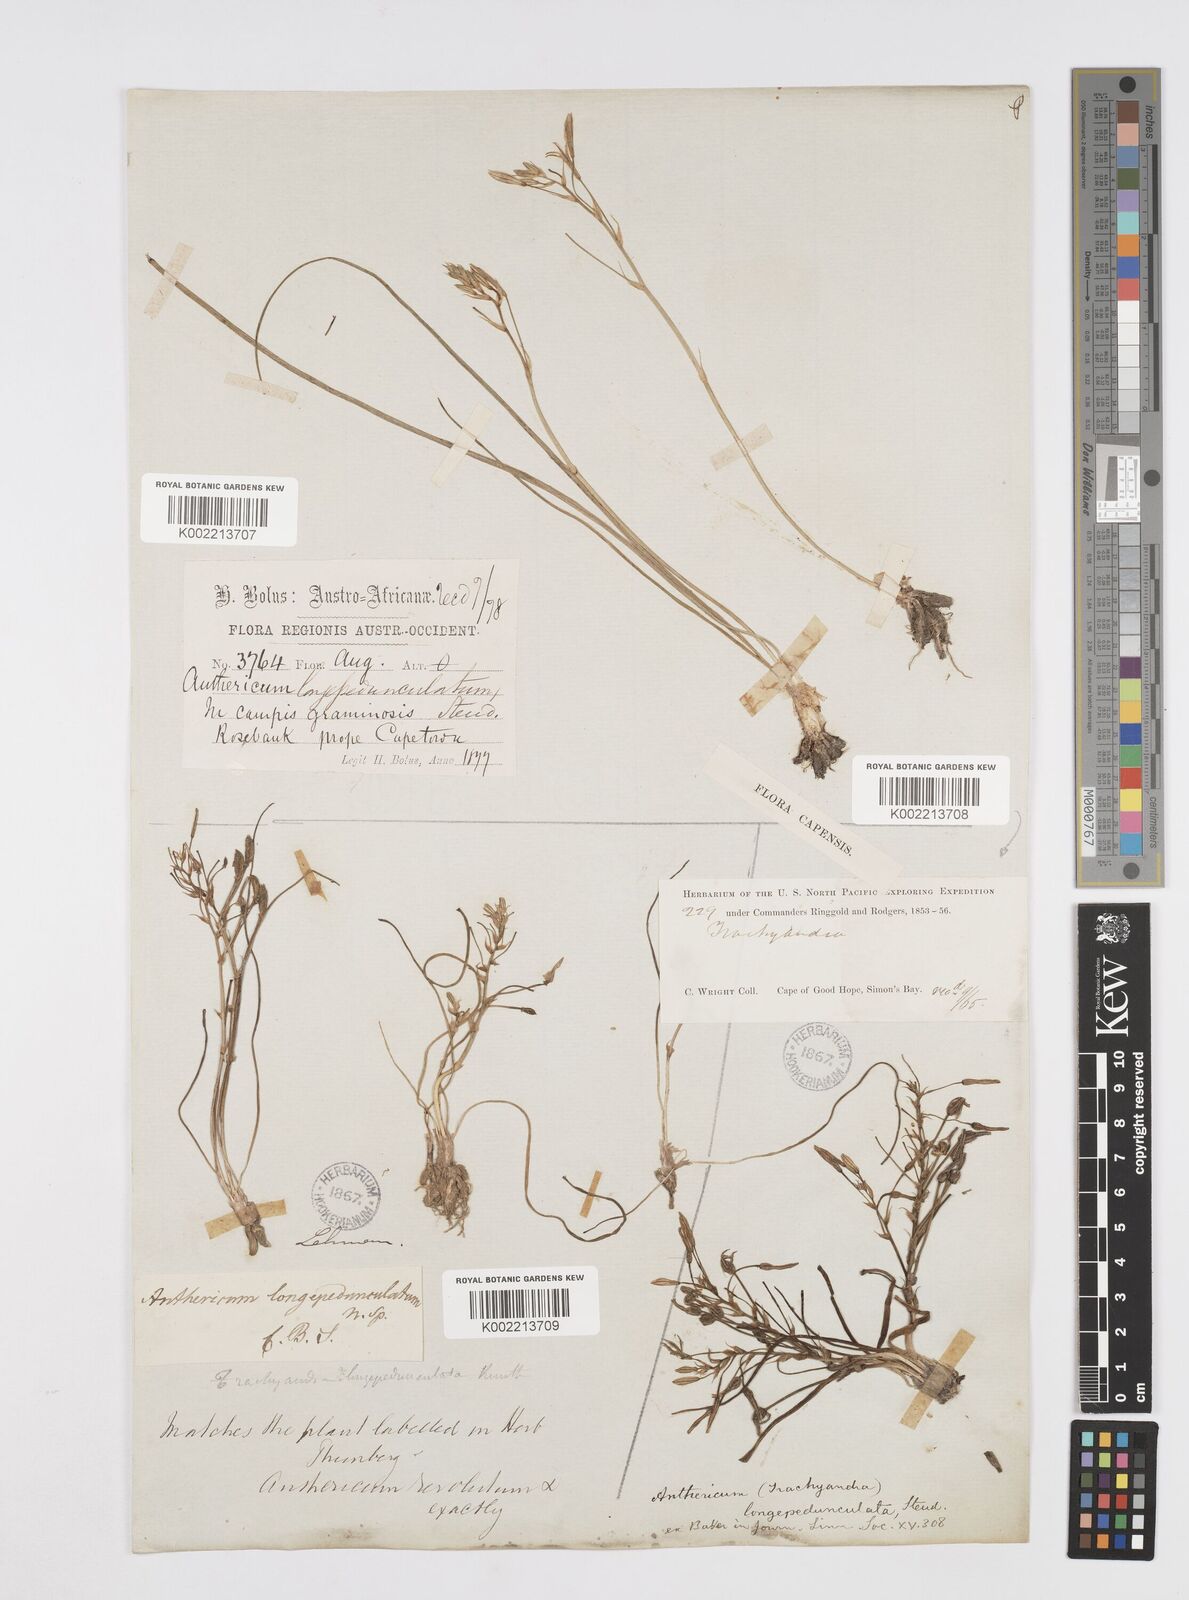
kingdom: Plantae
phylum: Tracheophyta
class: Liliopsida
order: Asparagales
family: Asphodelaceae
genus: Trachyandra
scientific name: Trachyandra filiformis
